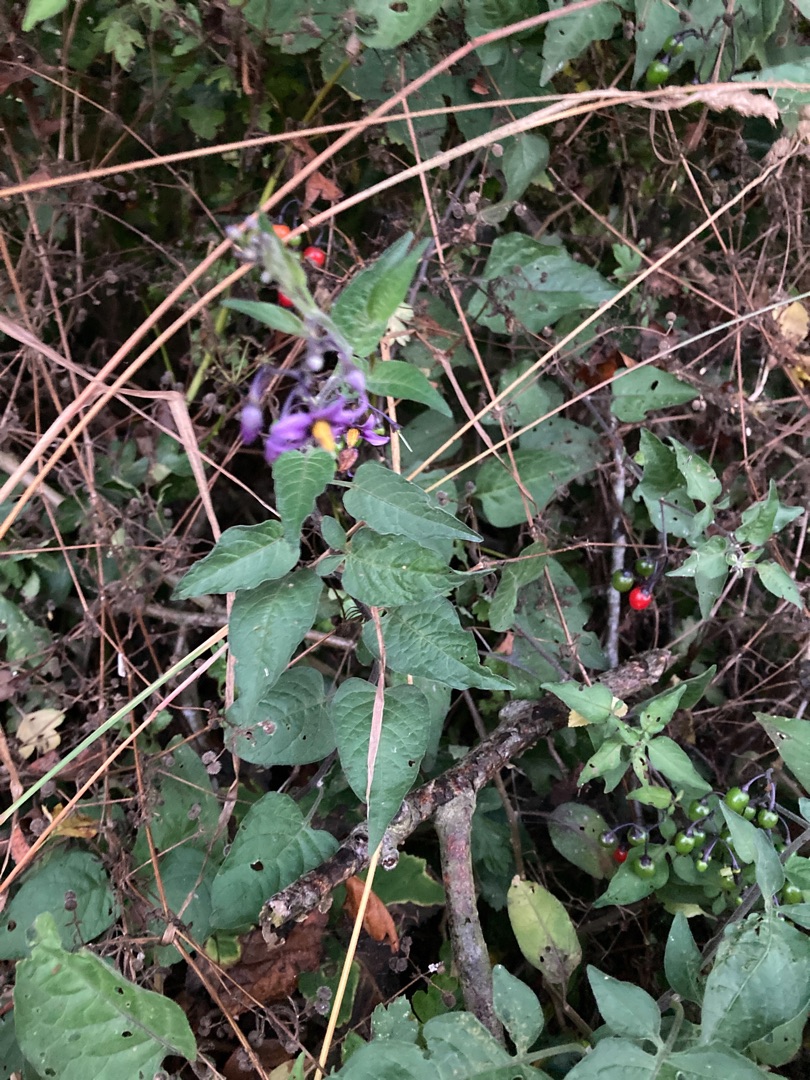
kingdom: Plantae
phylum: Tracheophyta
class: Magnoliopsida
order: Solanales
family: Solanaceae
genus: Solanum
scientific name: Solanum dulcamara
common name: Bittersød natskygge
